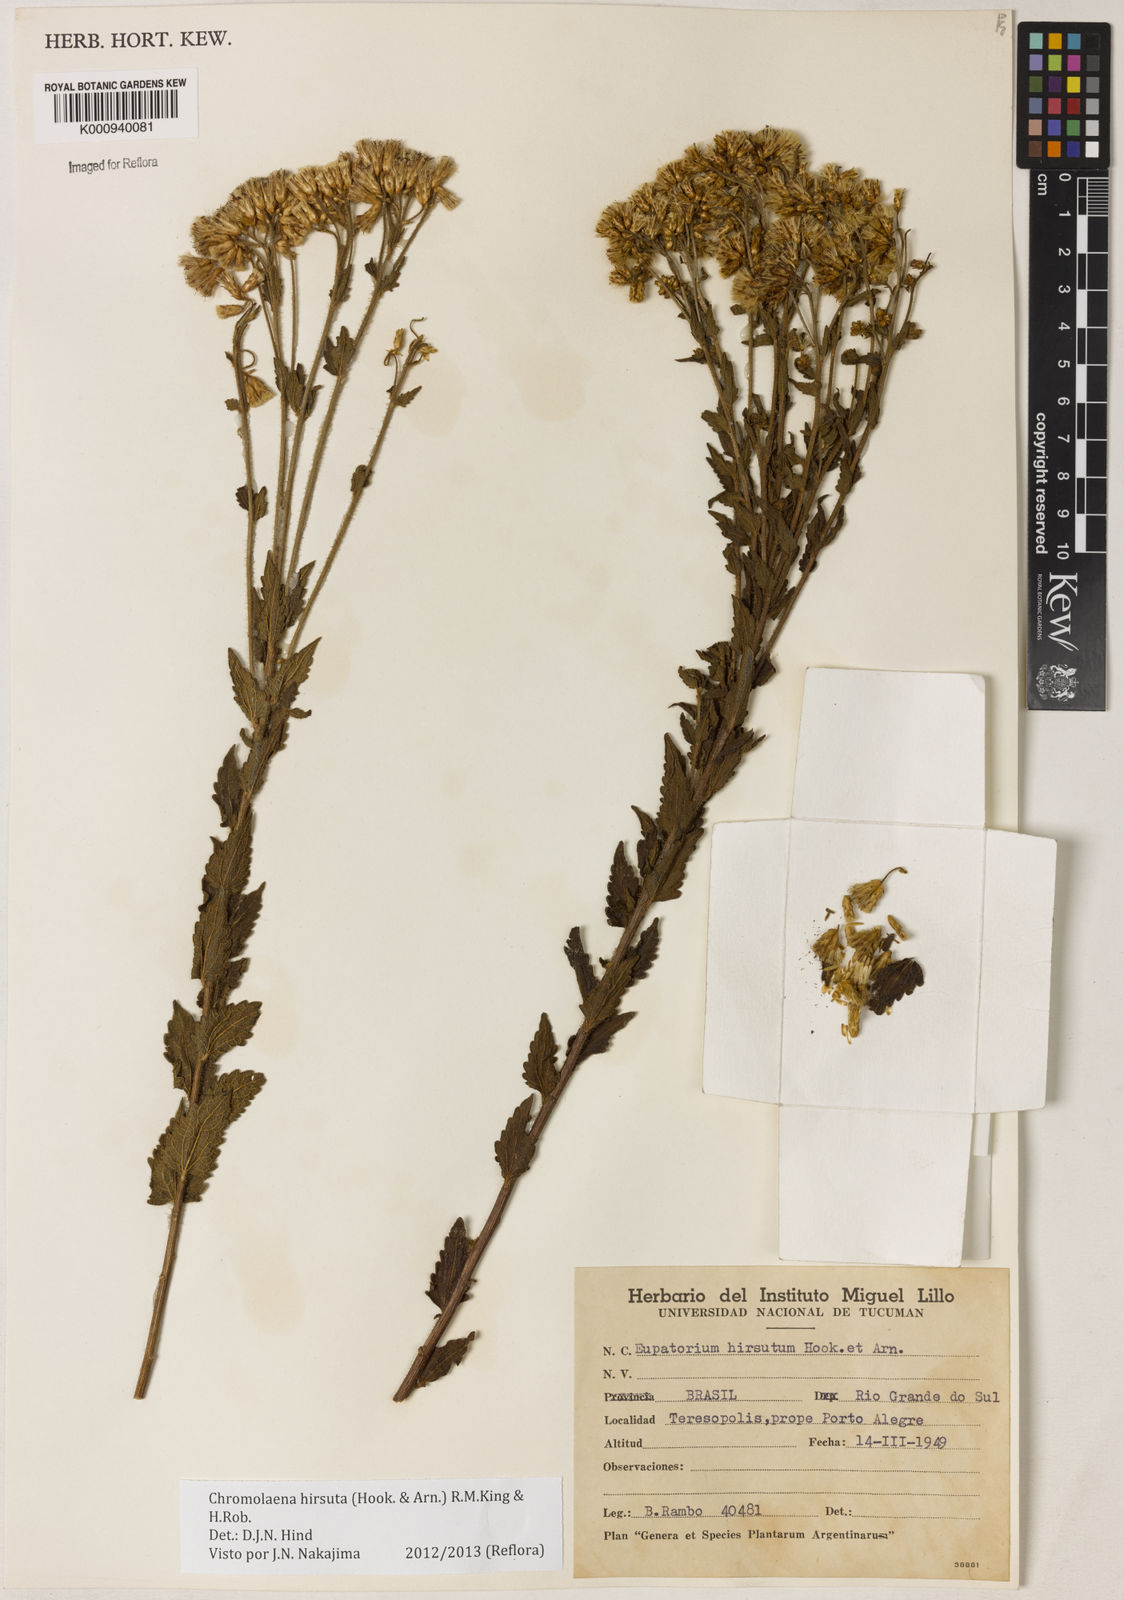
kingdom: Plantae
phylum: Tracheophyta
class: Magnoliopsida
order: Asterales
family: Asteraceae
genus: Chromolaena
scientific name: Chromolaena hirsuta
